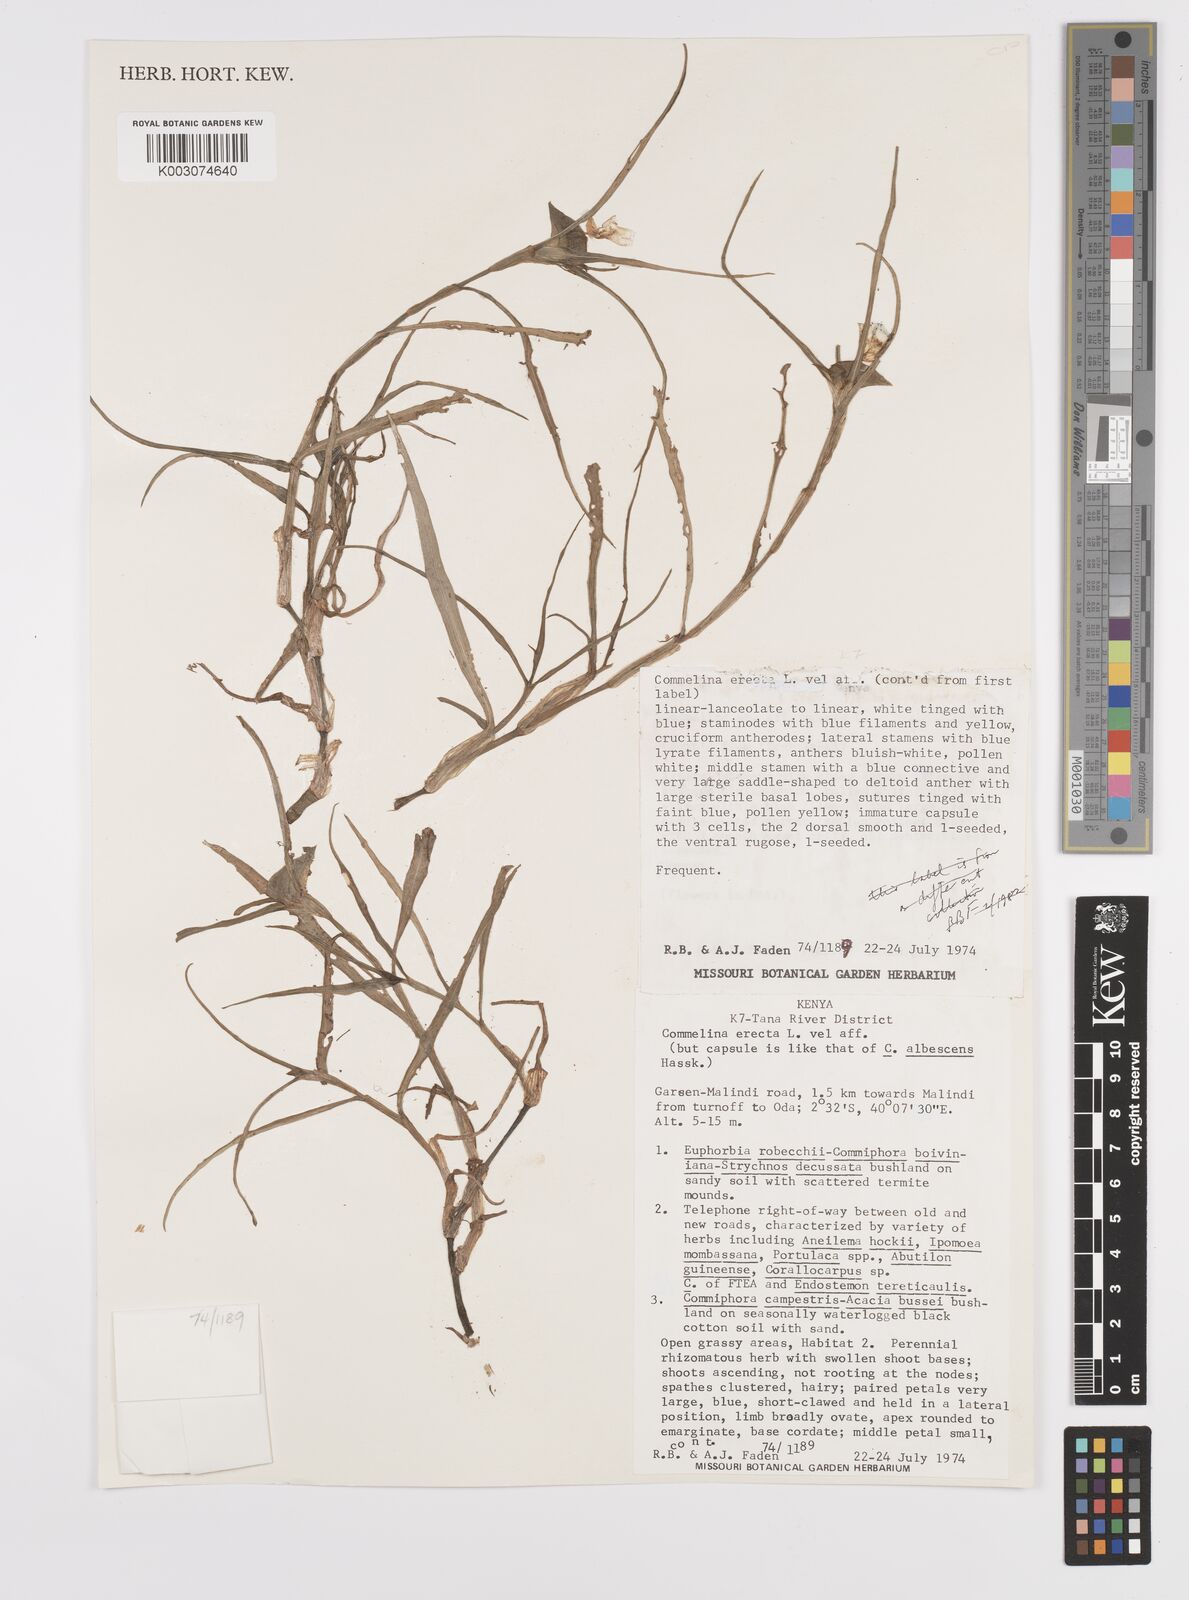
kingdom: Plantae
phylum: Tracheophyta
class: Liliopsida
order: Commelinales
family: Commelinaceae
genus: Commelina
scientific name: Commelina erecta
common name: Blousel blommetjie
